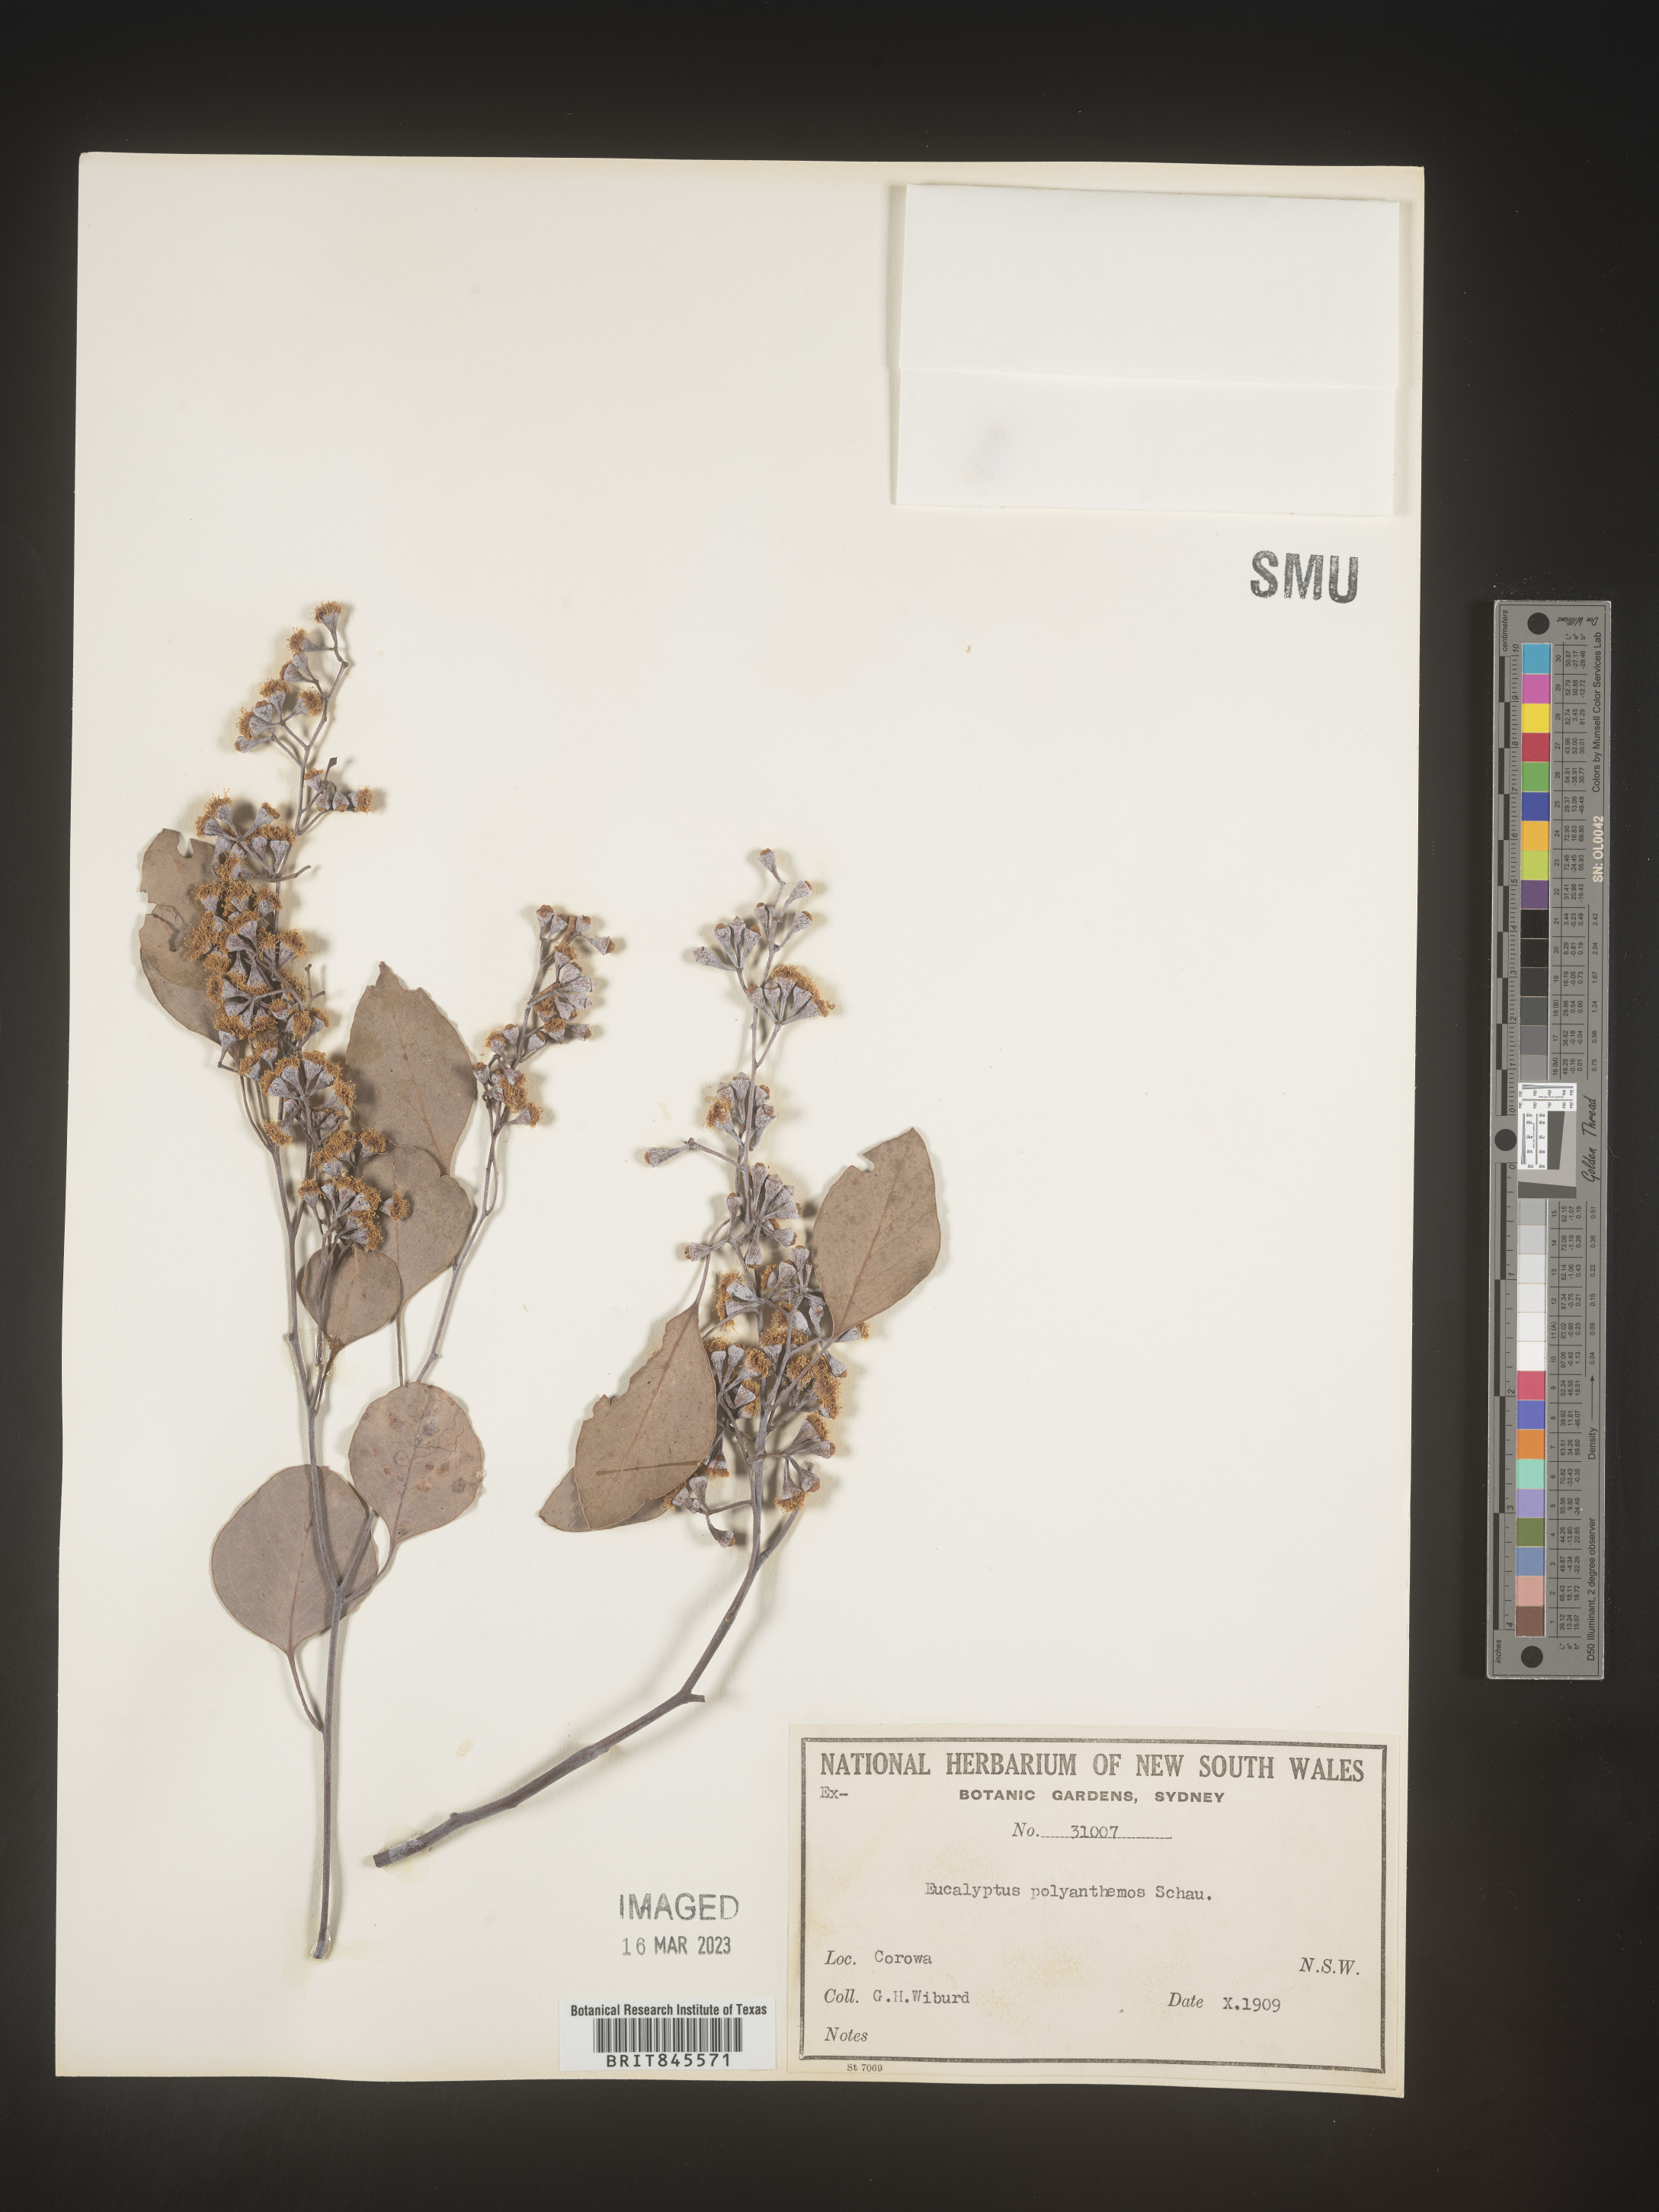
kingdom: Plantae
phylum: Tracheophyta
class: Magnoliopsida
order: Myrtales
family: Myrtaceae
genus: Eucalyptus
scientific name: Eucalyptus
